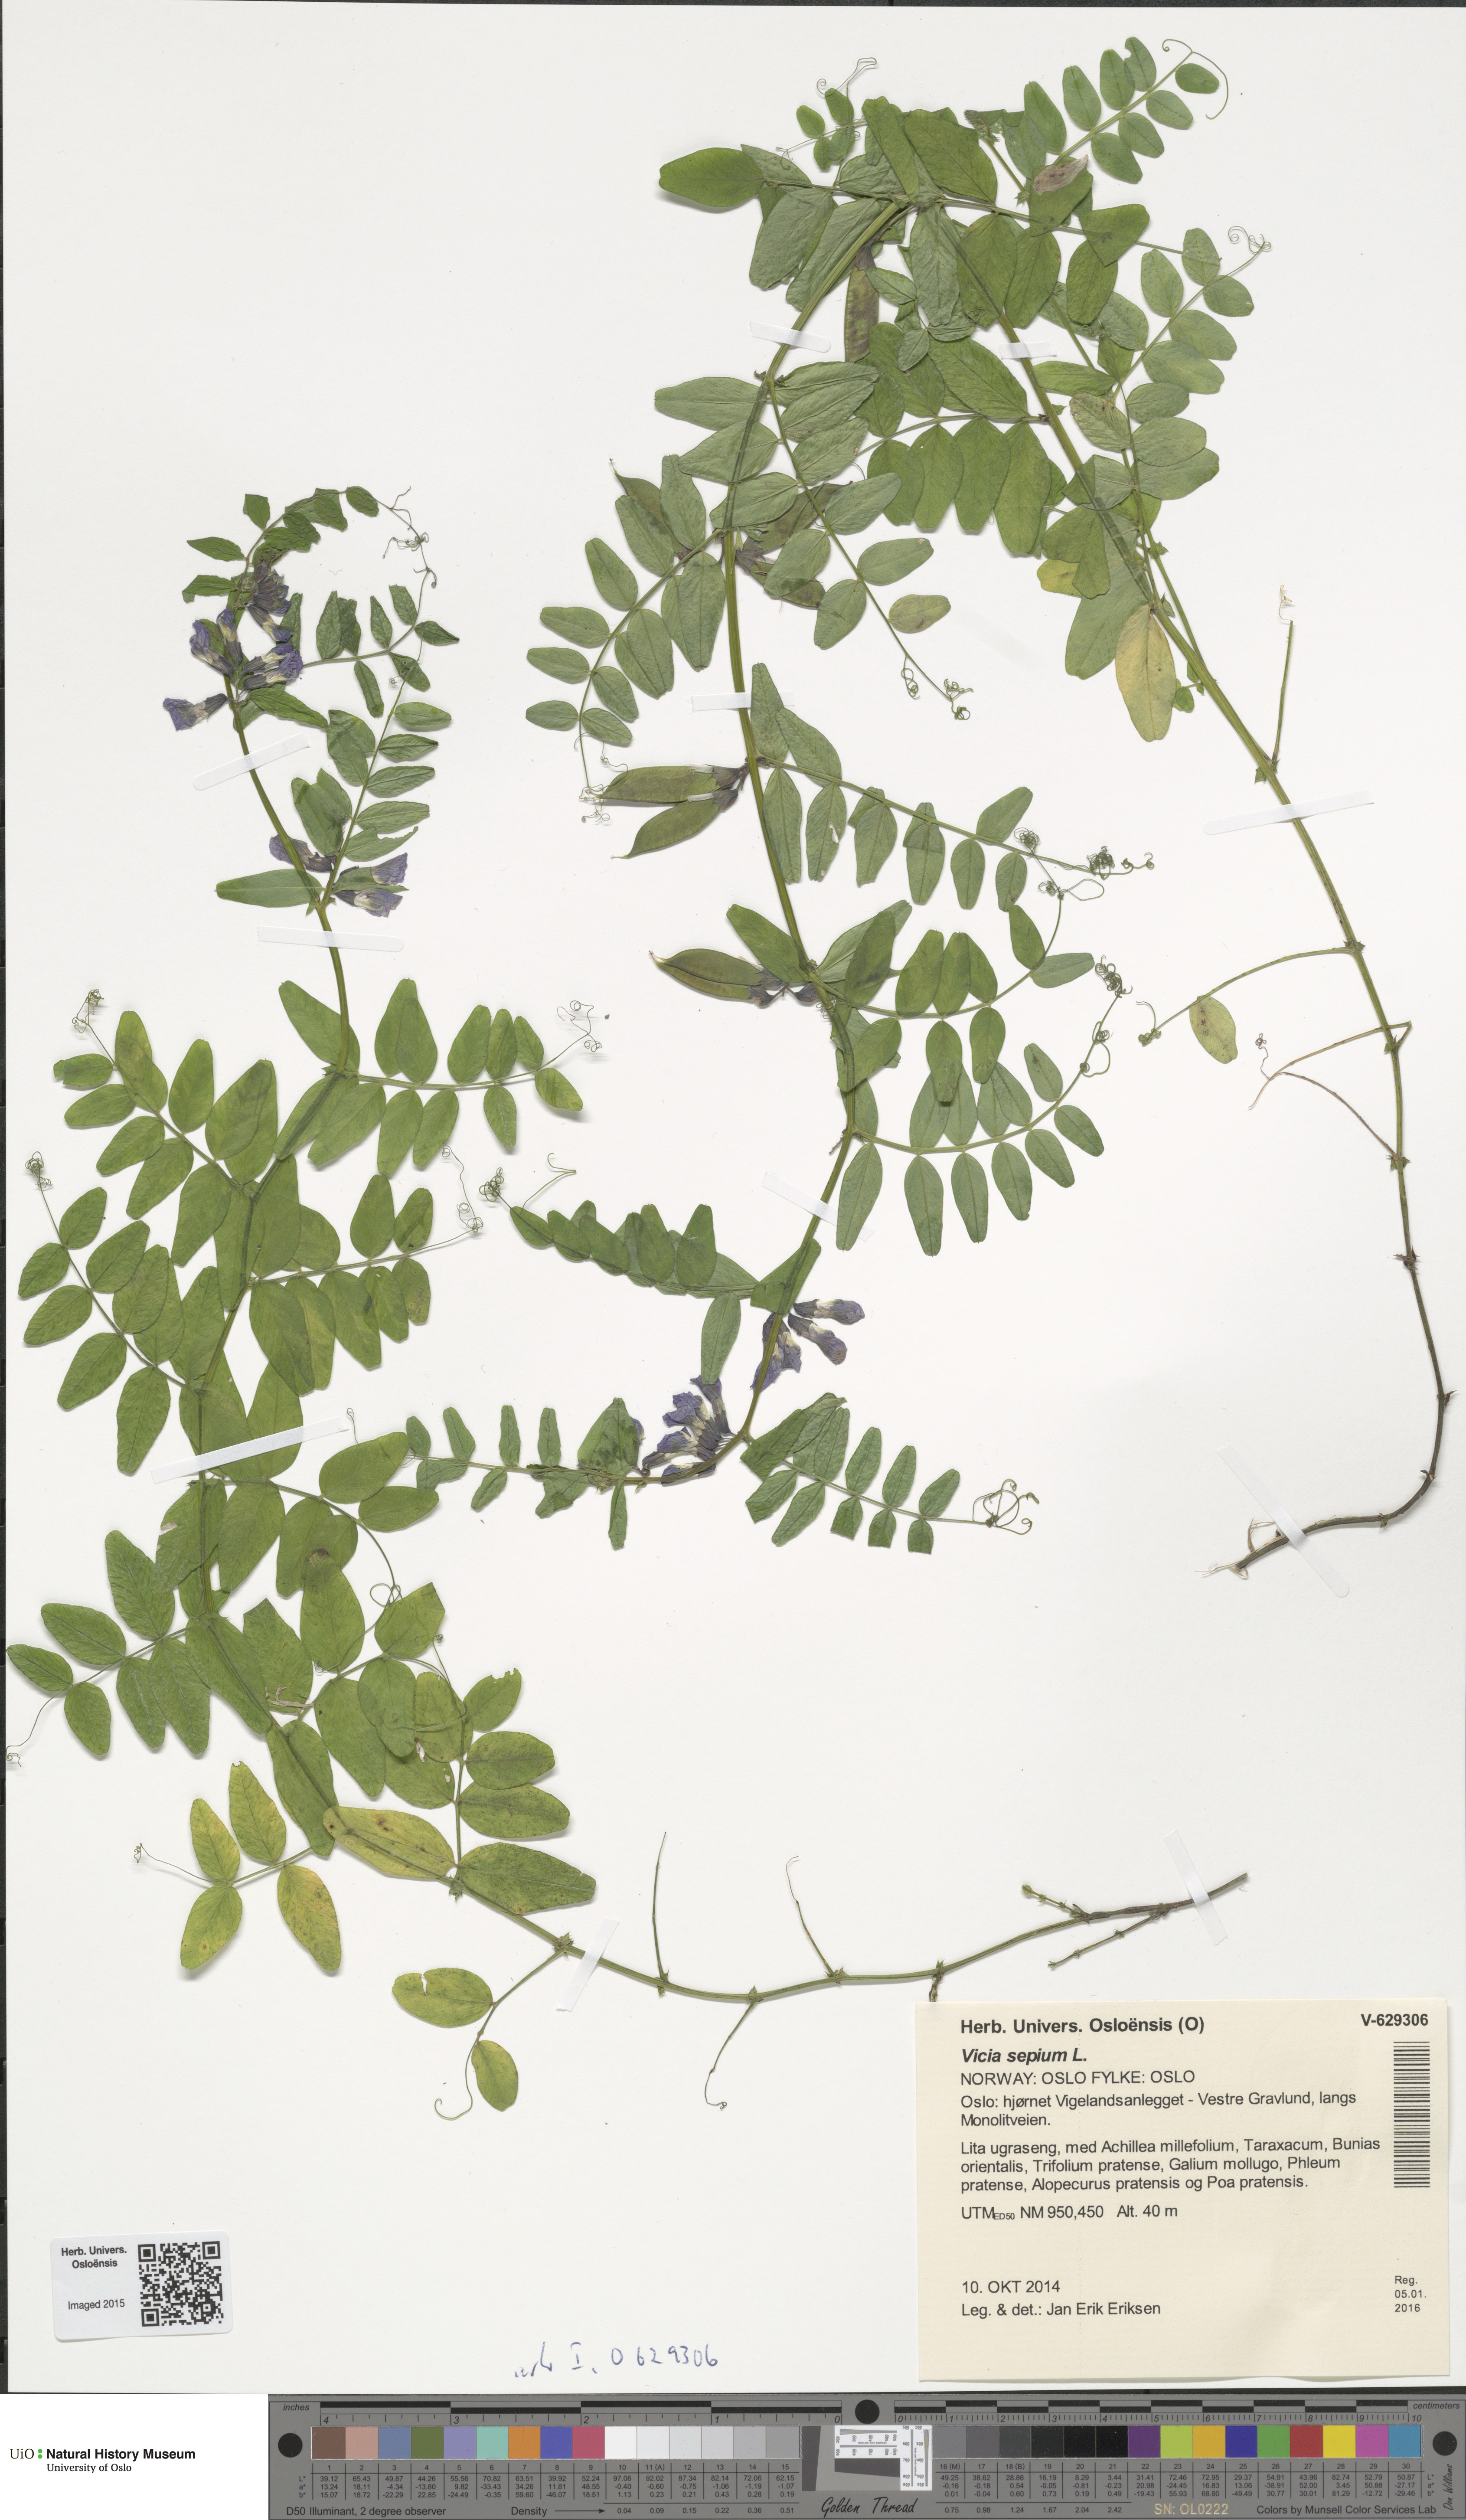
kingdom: Plantae
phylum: Tracheophyta
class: Magnoliopsida
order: Fabales
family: Fabaceae
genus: Vicia
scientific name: Vicia sepium
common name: Bush vetch
